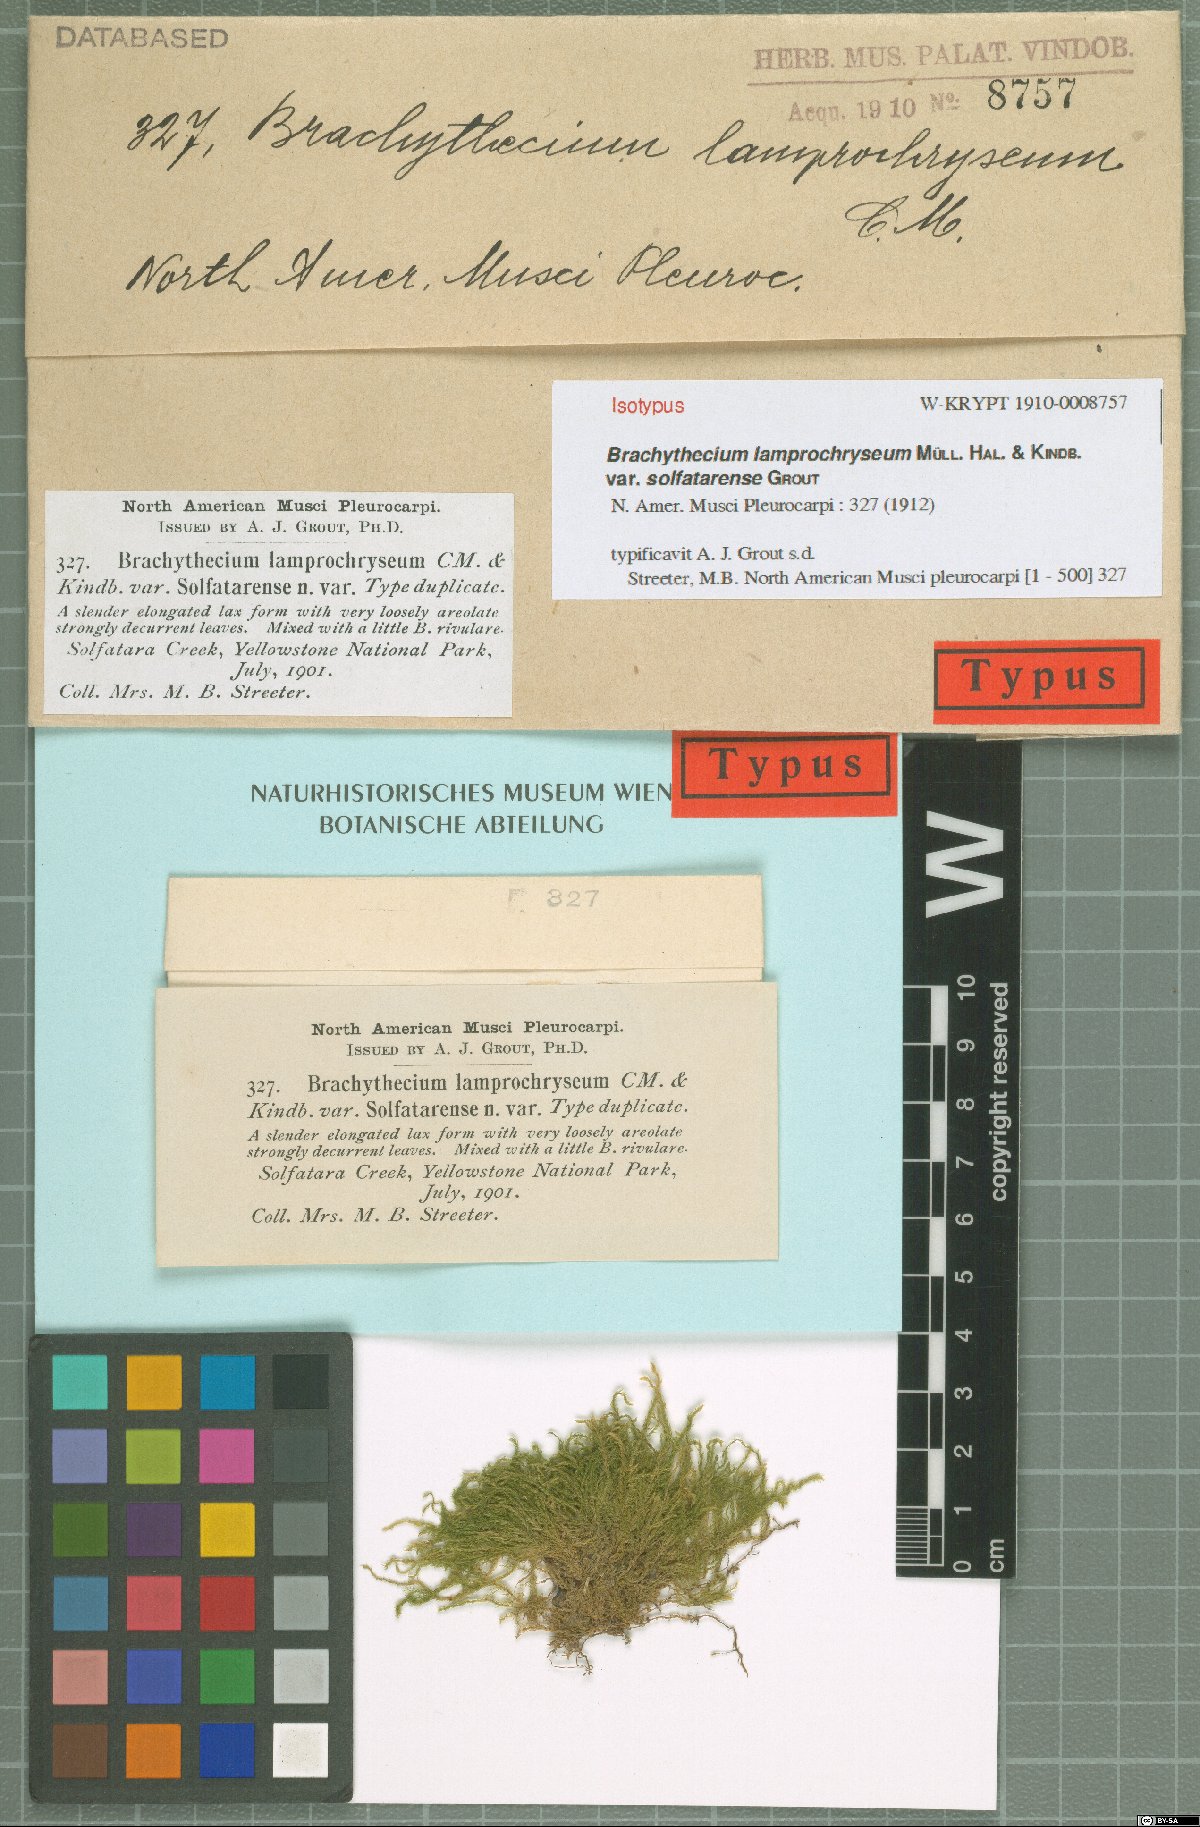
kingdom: Plantae
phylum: Bryophyta
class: Bryopsida
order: Hypnales
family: Brachytheciaceae
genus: Brachythecium
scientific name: Brachythecium frigidum
